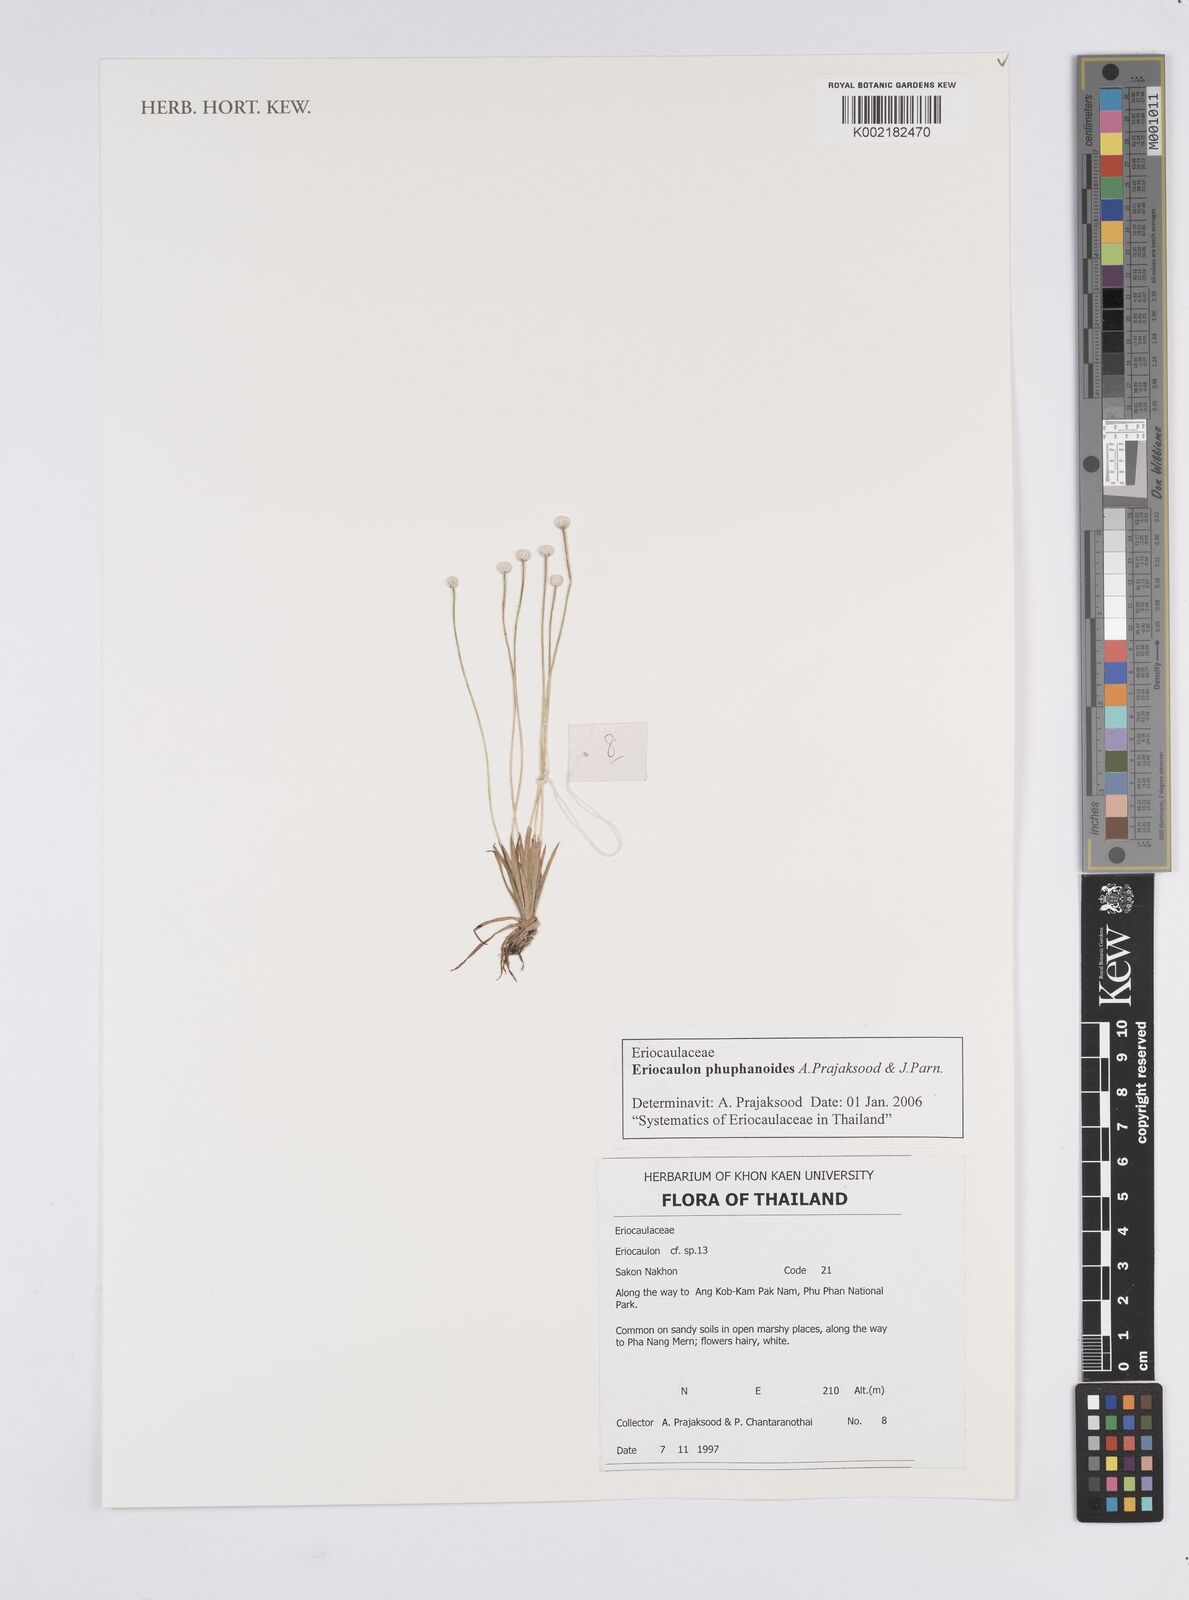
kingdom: Plantae
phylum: Tracheophyta
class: Liliopsida
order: Poales
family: Eriocaulaceae
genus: Eriocaulon
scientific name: Eriocaulon phuphanoides
